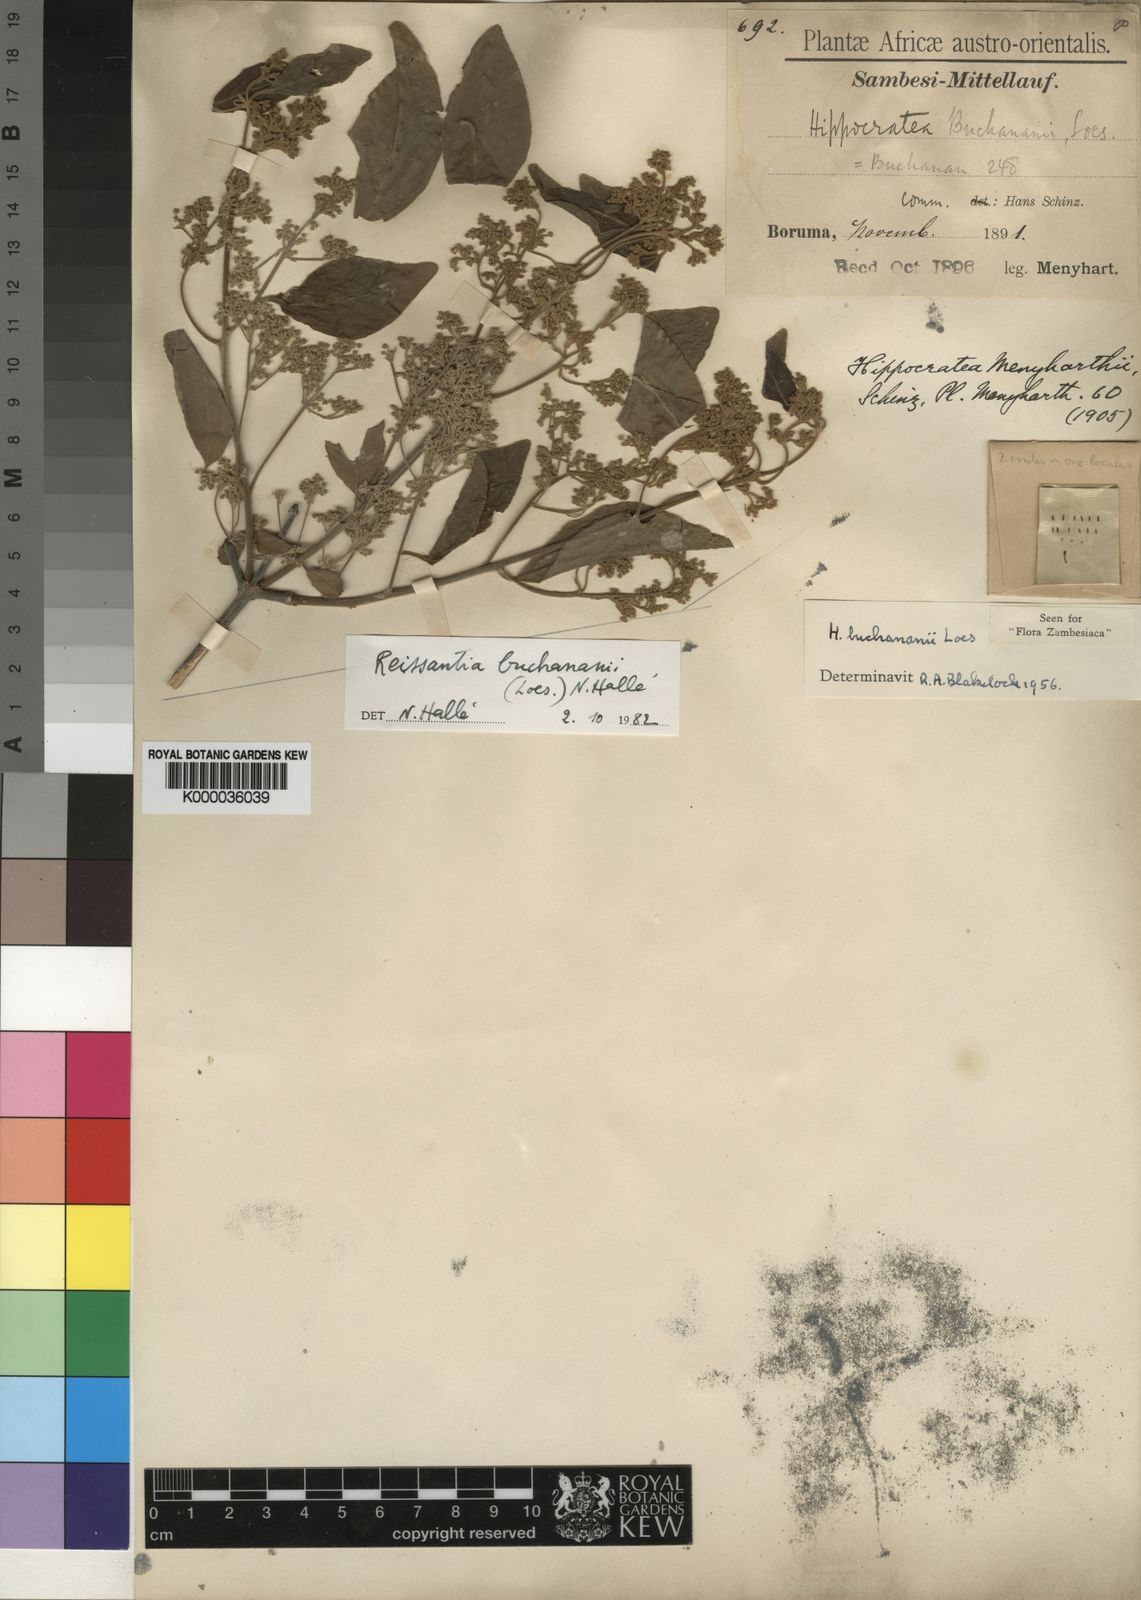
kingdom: Plantae
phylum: Tracheophyta
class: Magnoliopsida
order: Celastrales
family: Celastraceae
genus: Reissantia
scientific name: Reissantia buchananii
